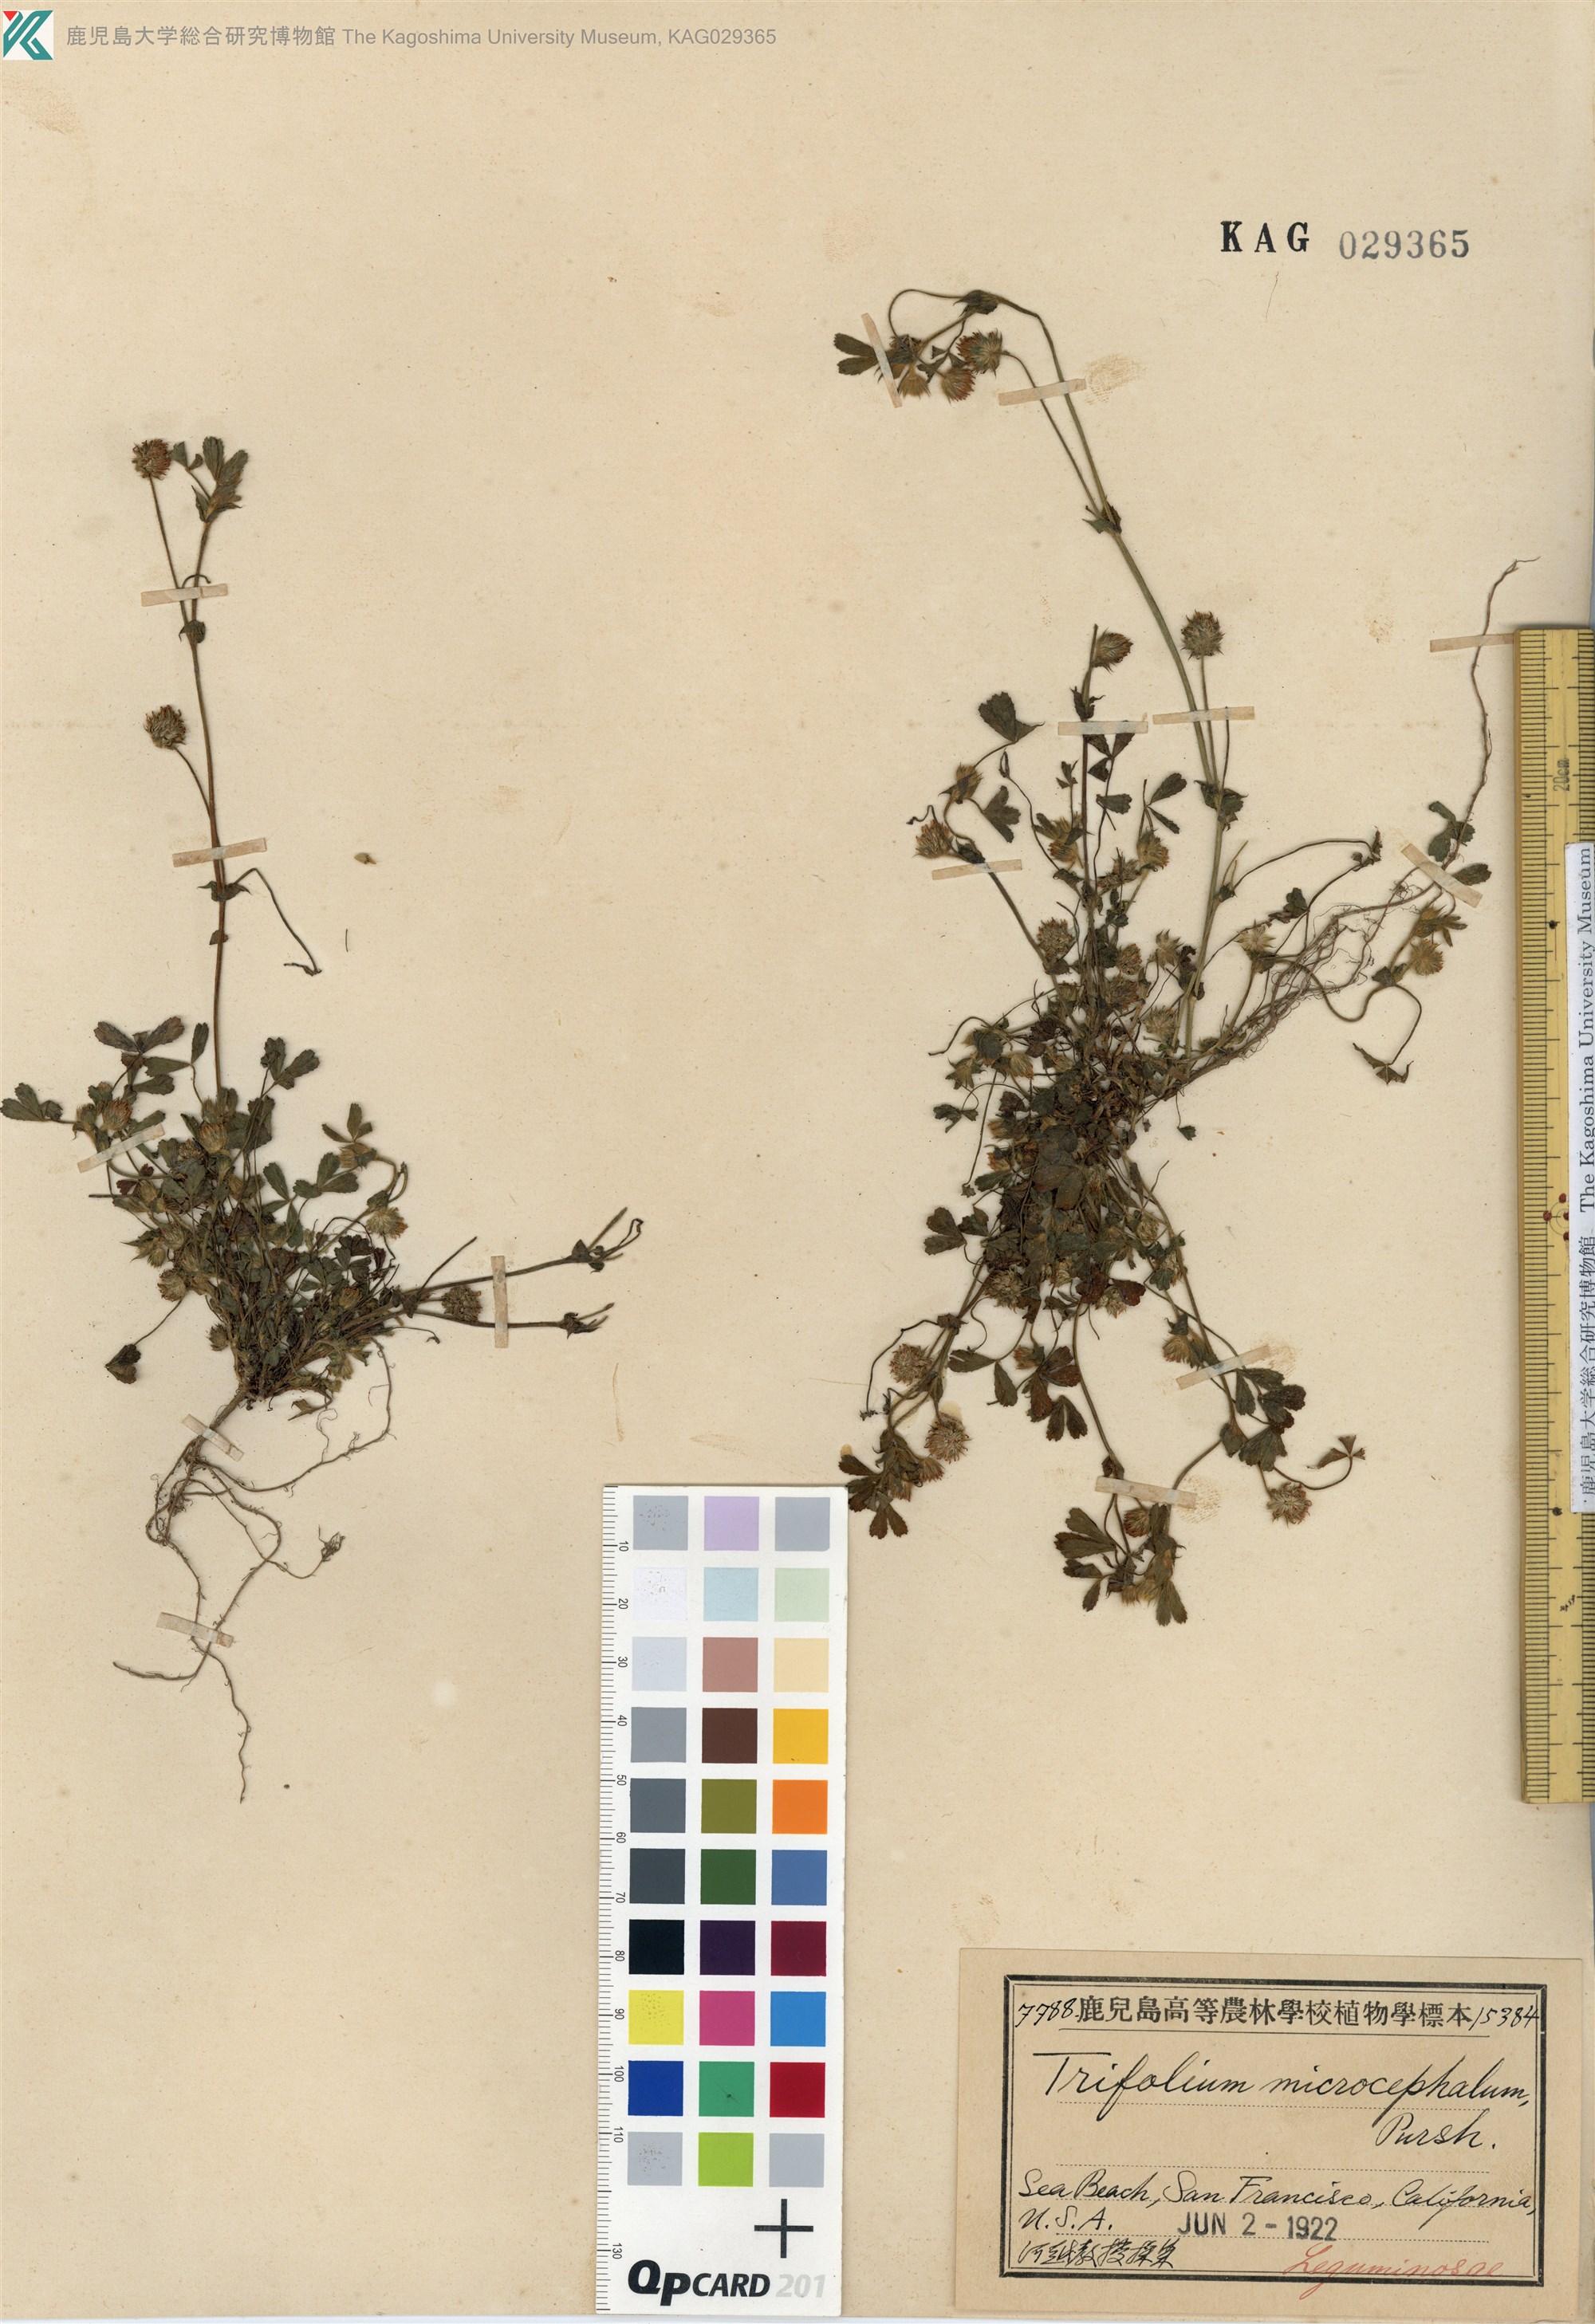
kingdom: Plantae
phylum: Tracheophyta
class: Magnoliopsida
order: Fabales
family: Fabaceae
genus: Trifolium
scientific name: Trifolium microcephalum
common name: Maiden clover
